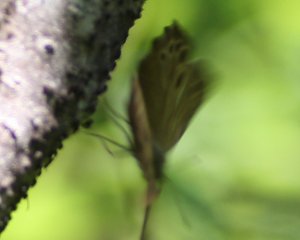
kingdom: Animalia
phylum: Arthropoda
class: Insecta
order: Lepidoptera
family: Nymphalidae
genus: Lethe
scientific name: Lethe anthedon
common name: Northern Pearly-Eye
